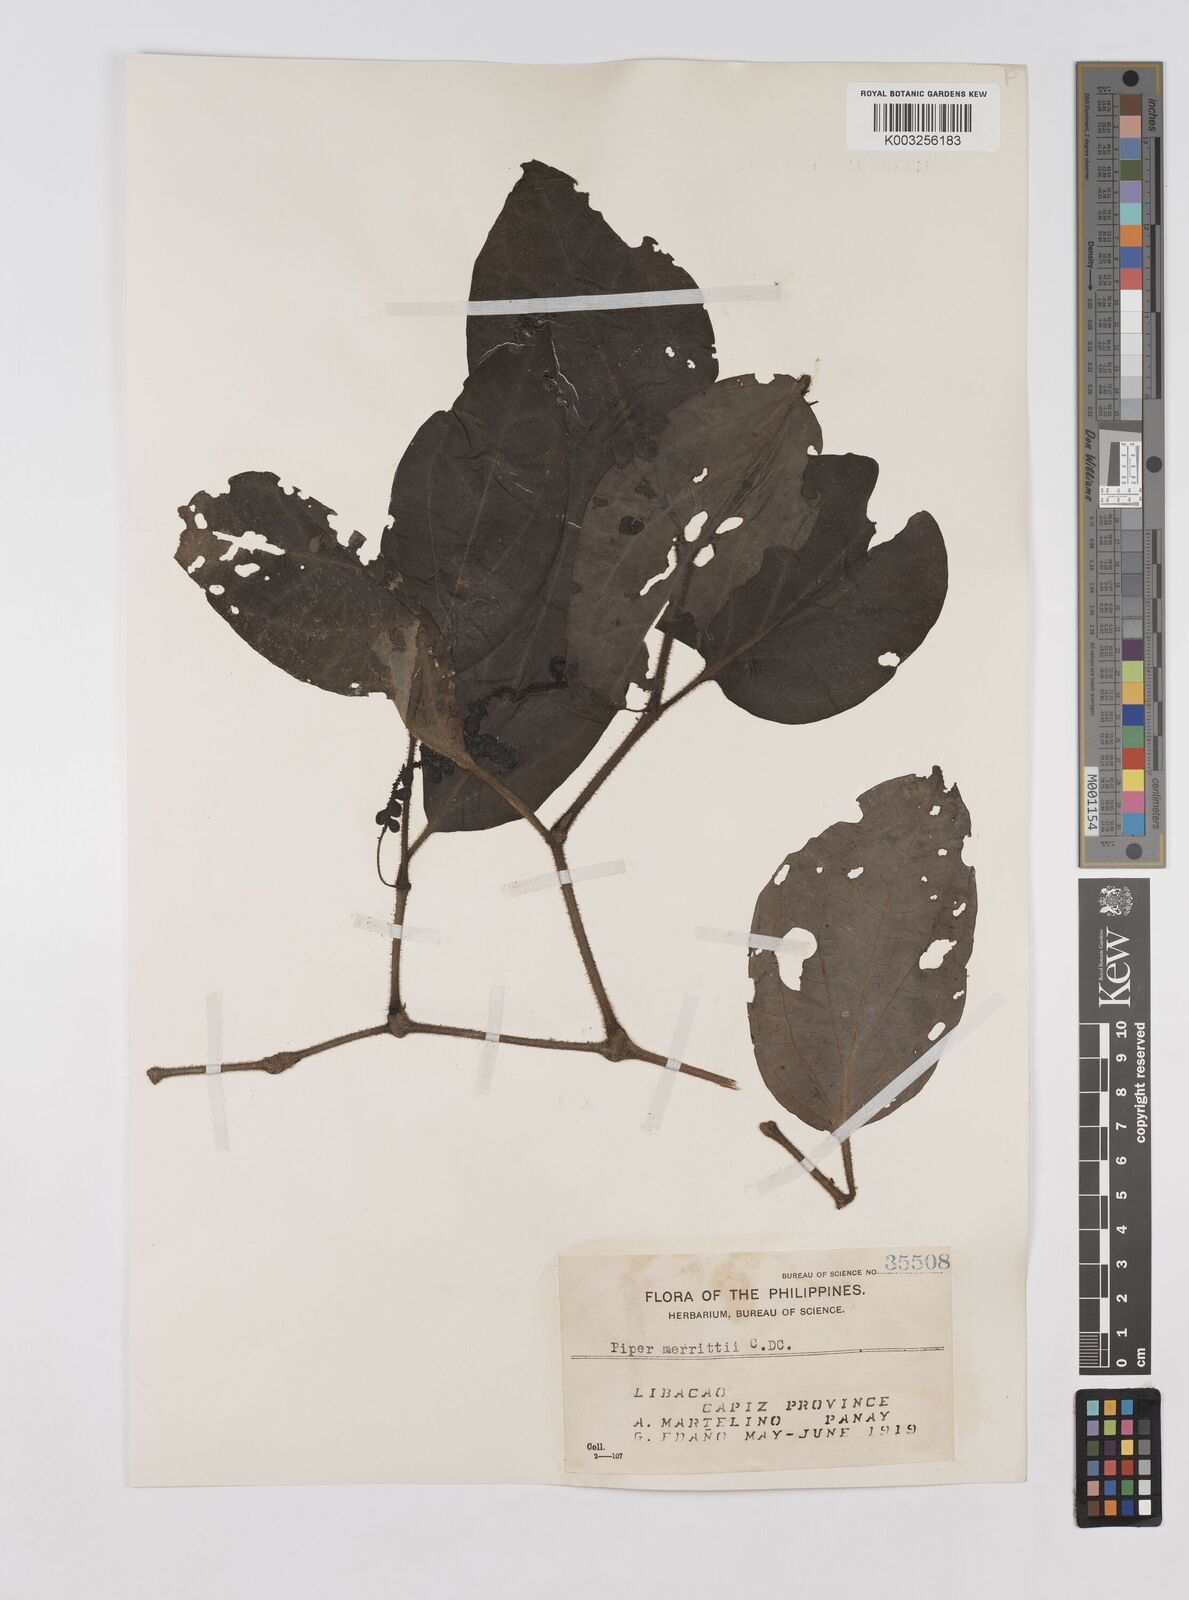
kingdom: Plantae
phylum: Tracheophyta
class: Magnoliopsida
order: Piperales
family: Piperaceae
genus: Piper
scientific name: Piper lanatum
